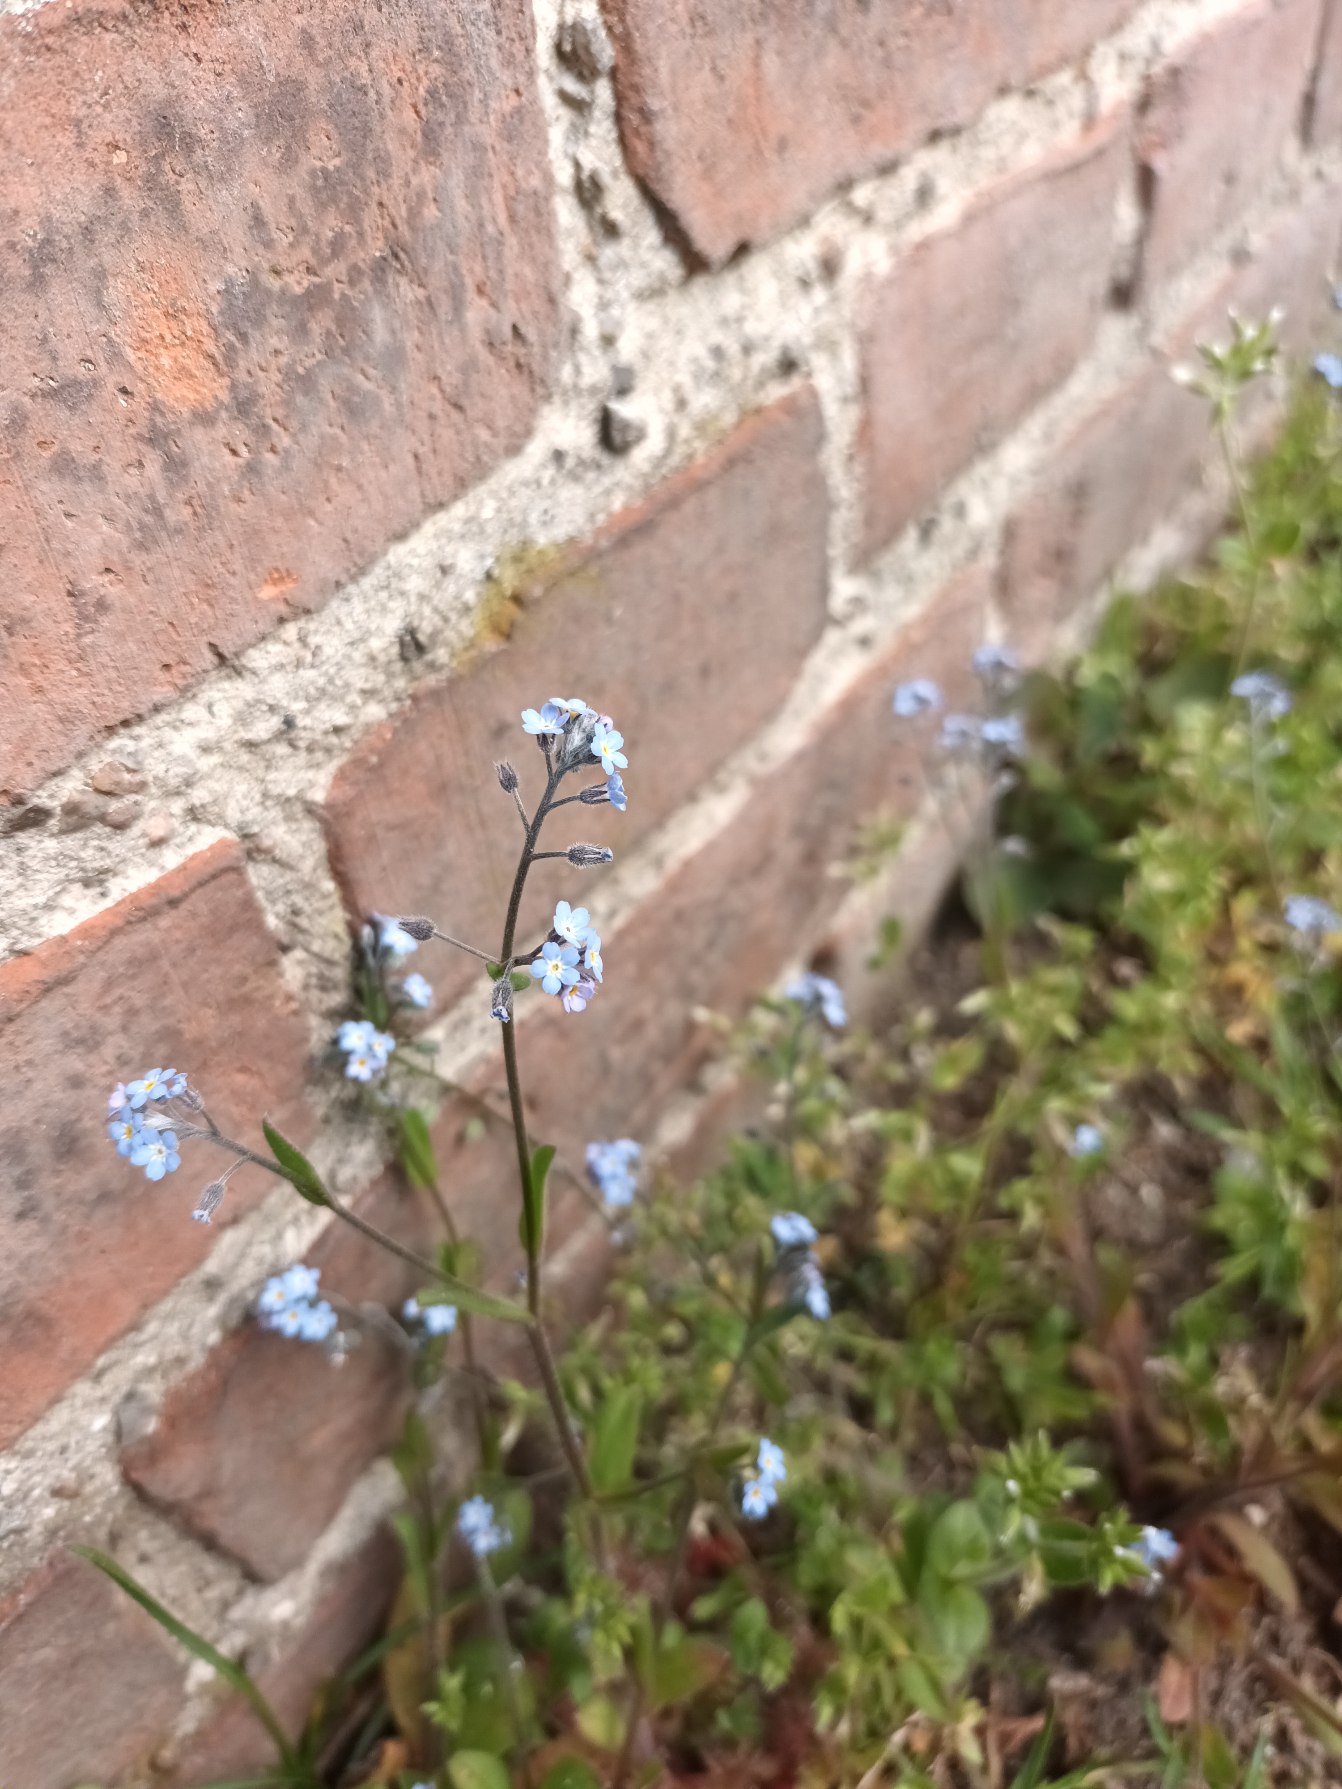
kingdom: Plantae
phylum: Tracheophyta
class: Magnoliopsida
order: Boraginales
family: Boraginaceae
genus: Myosotis
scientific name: Myosotis arvensis
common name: Mark-forglemmigej
